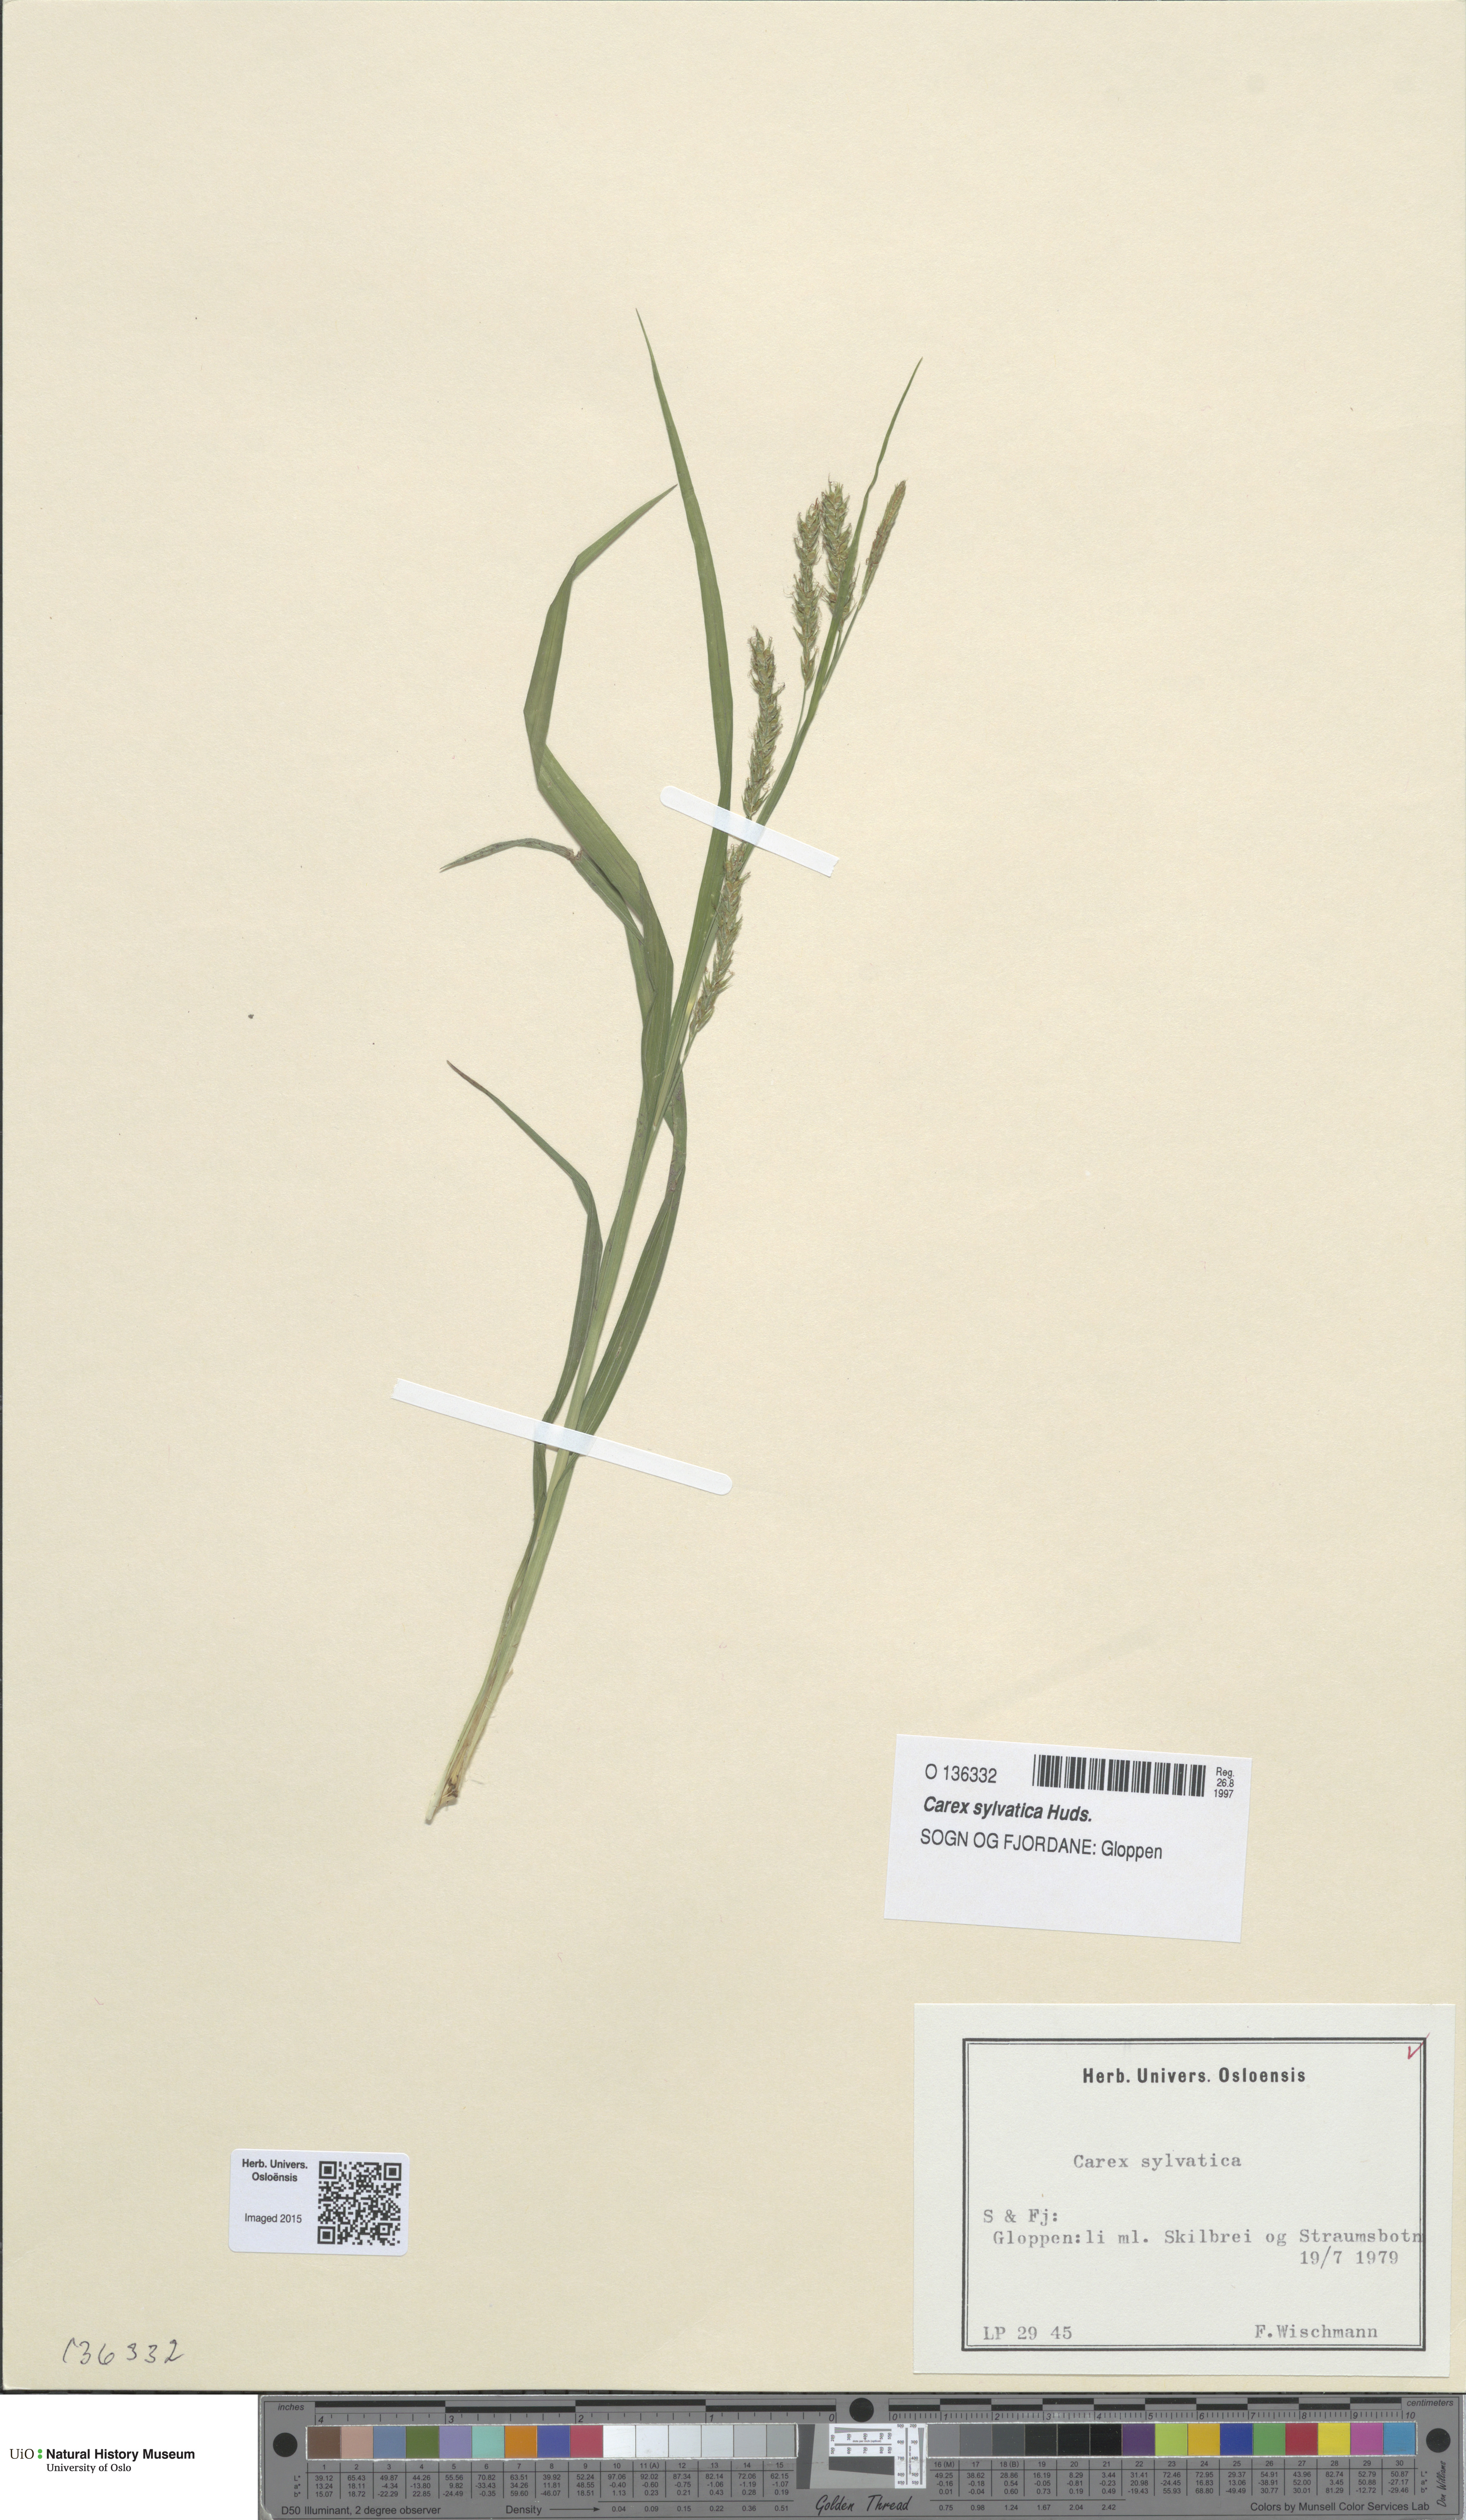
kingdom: Plantae
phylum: Tracheophyta
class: Liliopsida
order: Poales
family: Cyperaceae
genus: Carex
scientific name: Carex sylvatica
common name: Wood-sedge
